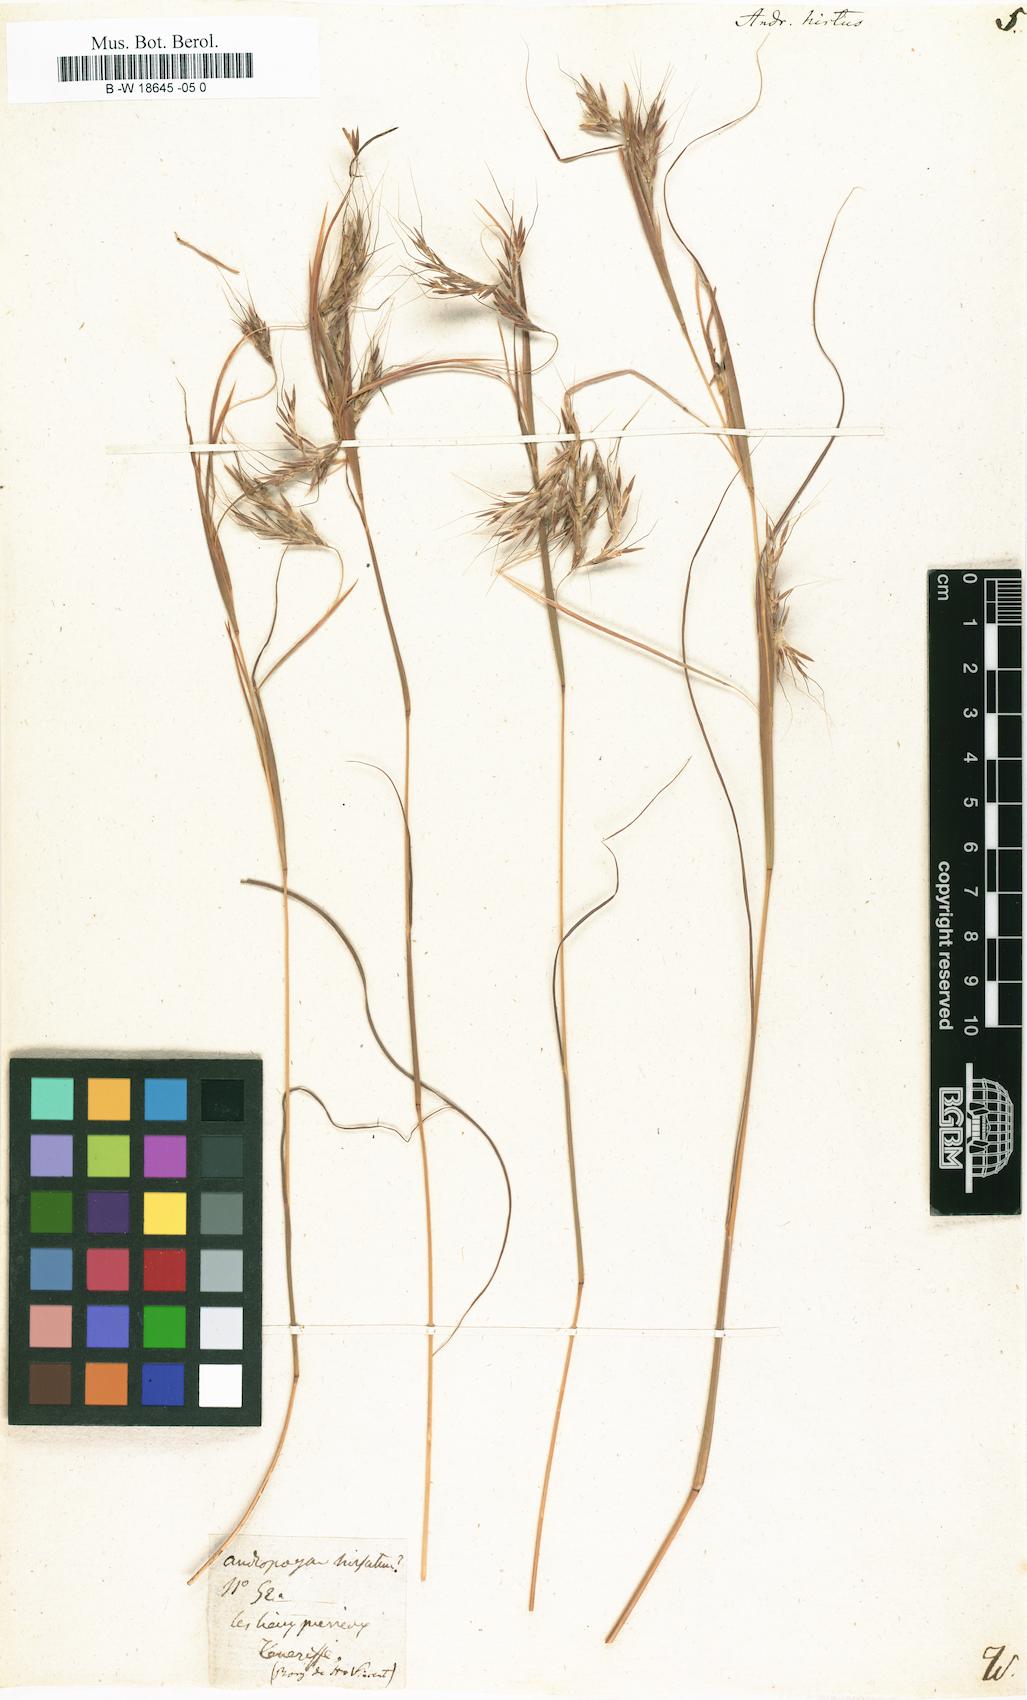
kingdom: Plantae
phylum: Tracheophyta
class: Liliopsida
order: Poales
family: Poaceae
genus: Hyparrhenia
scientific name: Hyparrhenia
